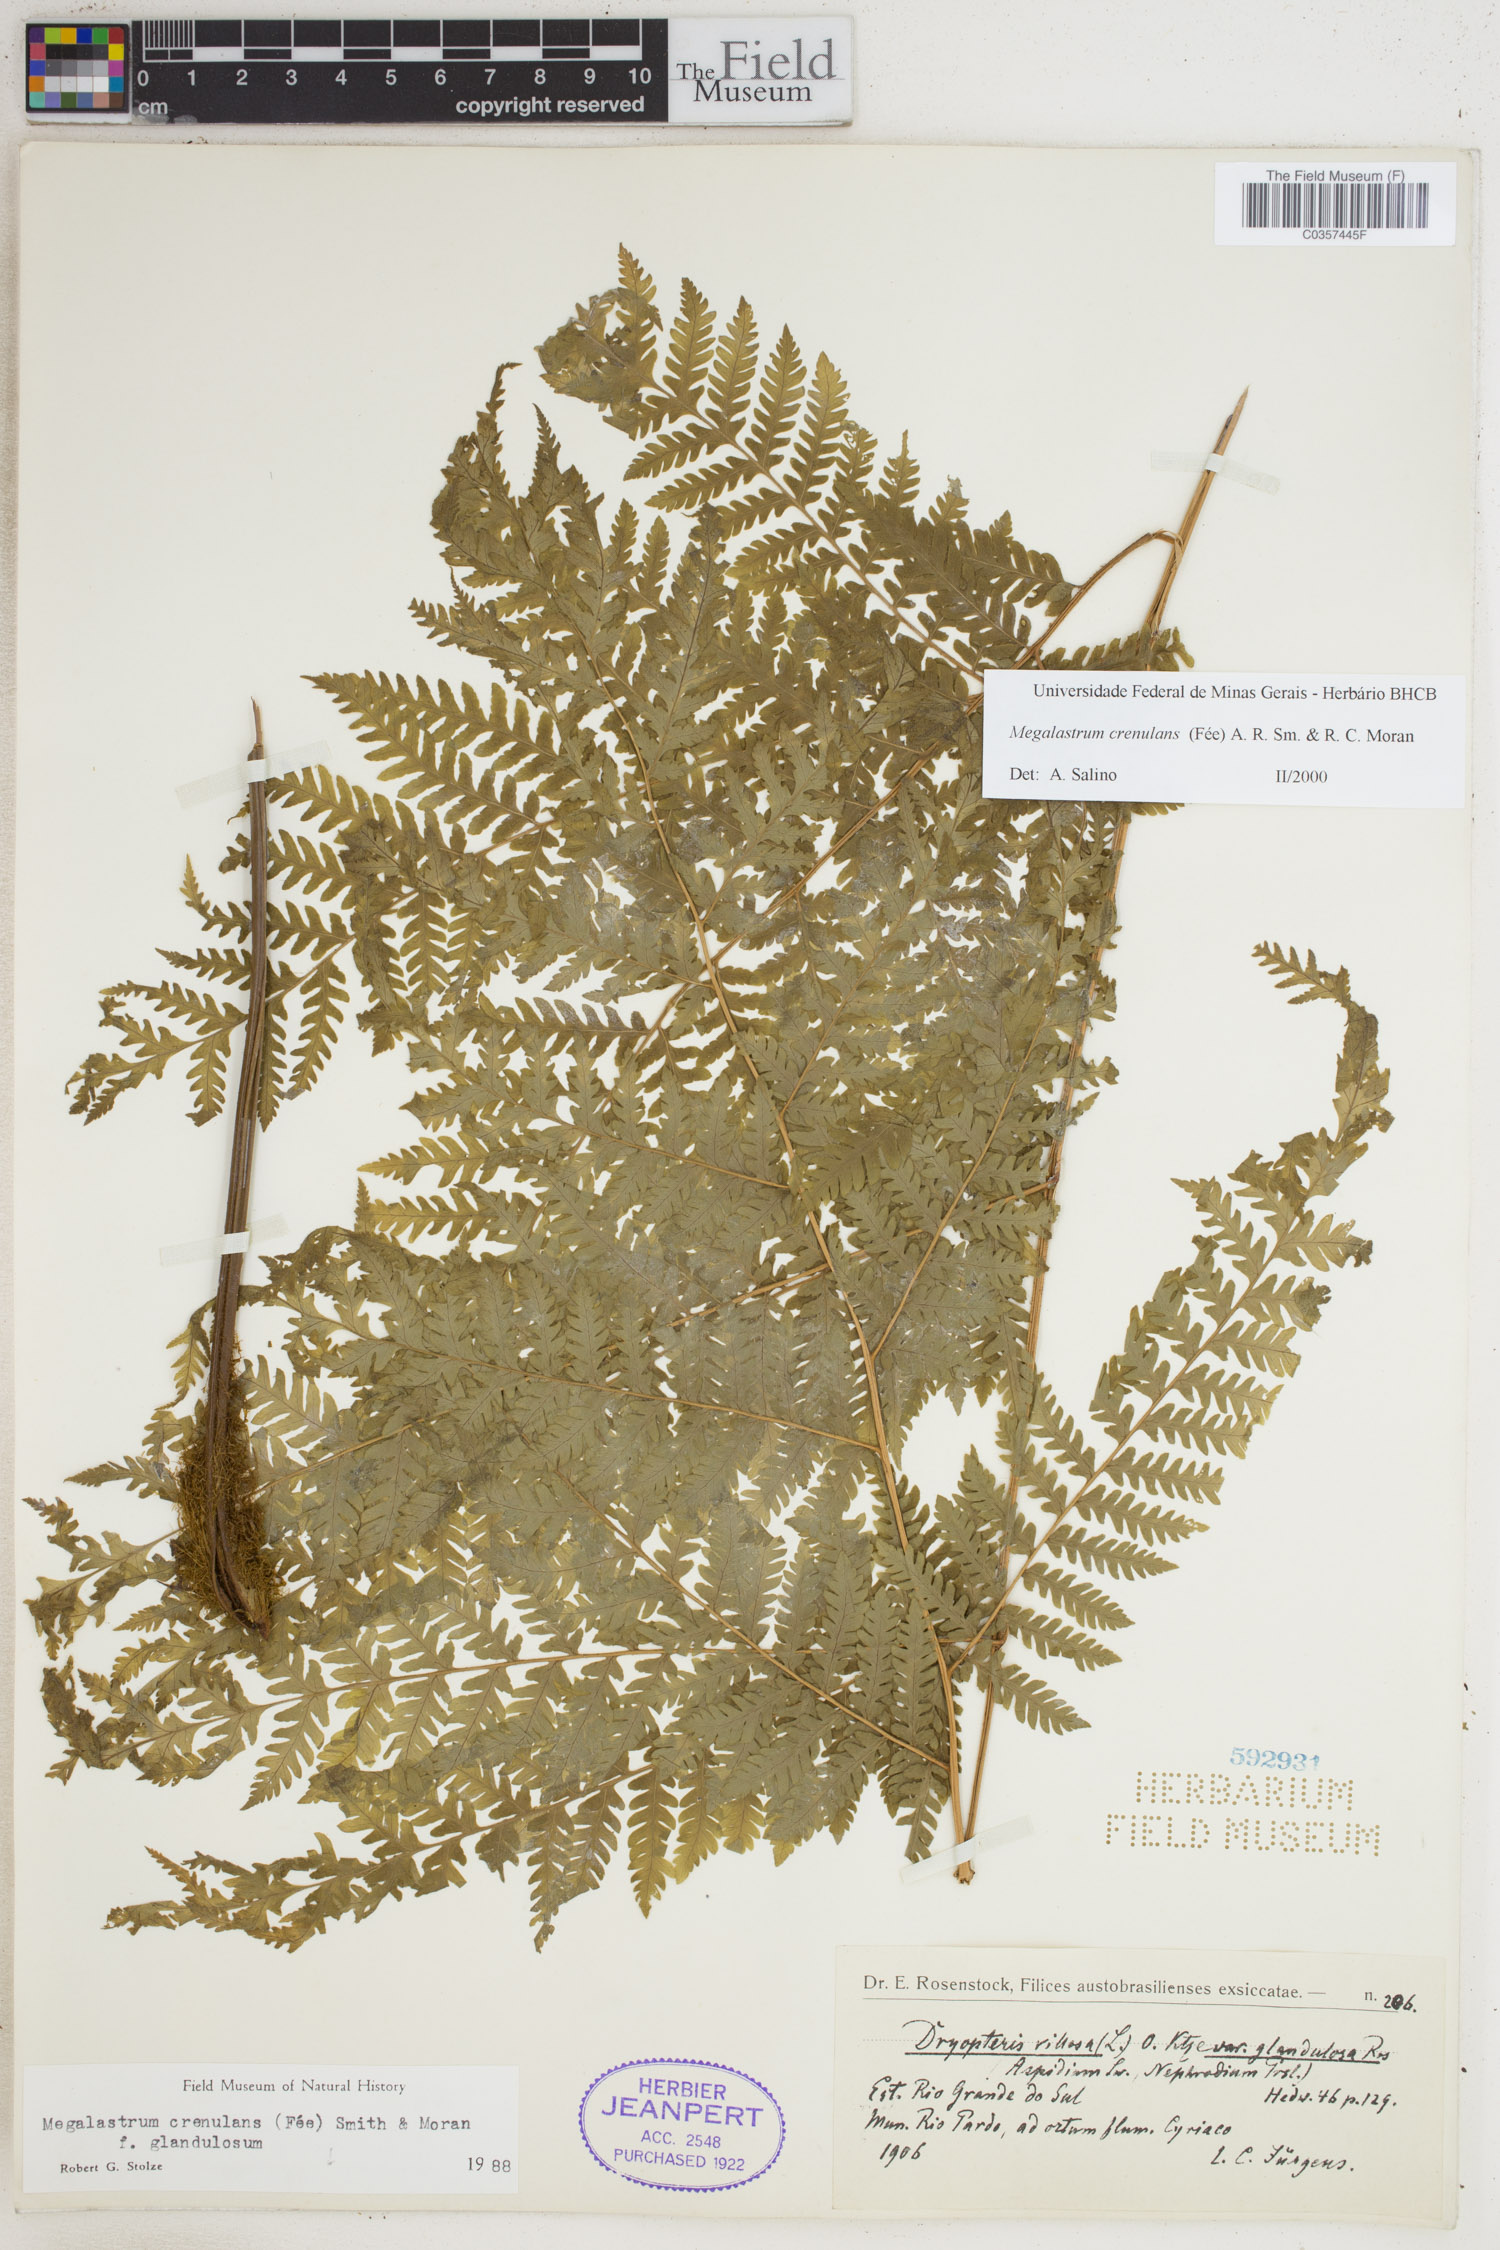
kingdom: Plantae
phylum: Tracheophyta
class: Polypodiopsida
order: Polypodiales
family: Dryopteridaceae
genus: Megalastrum
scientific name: Megalastrum crenulans
